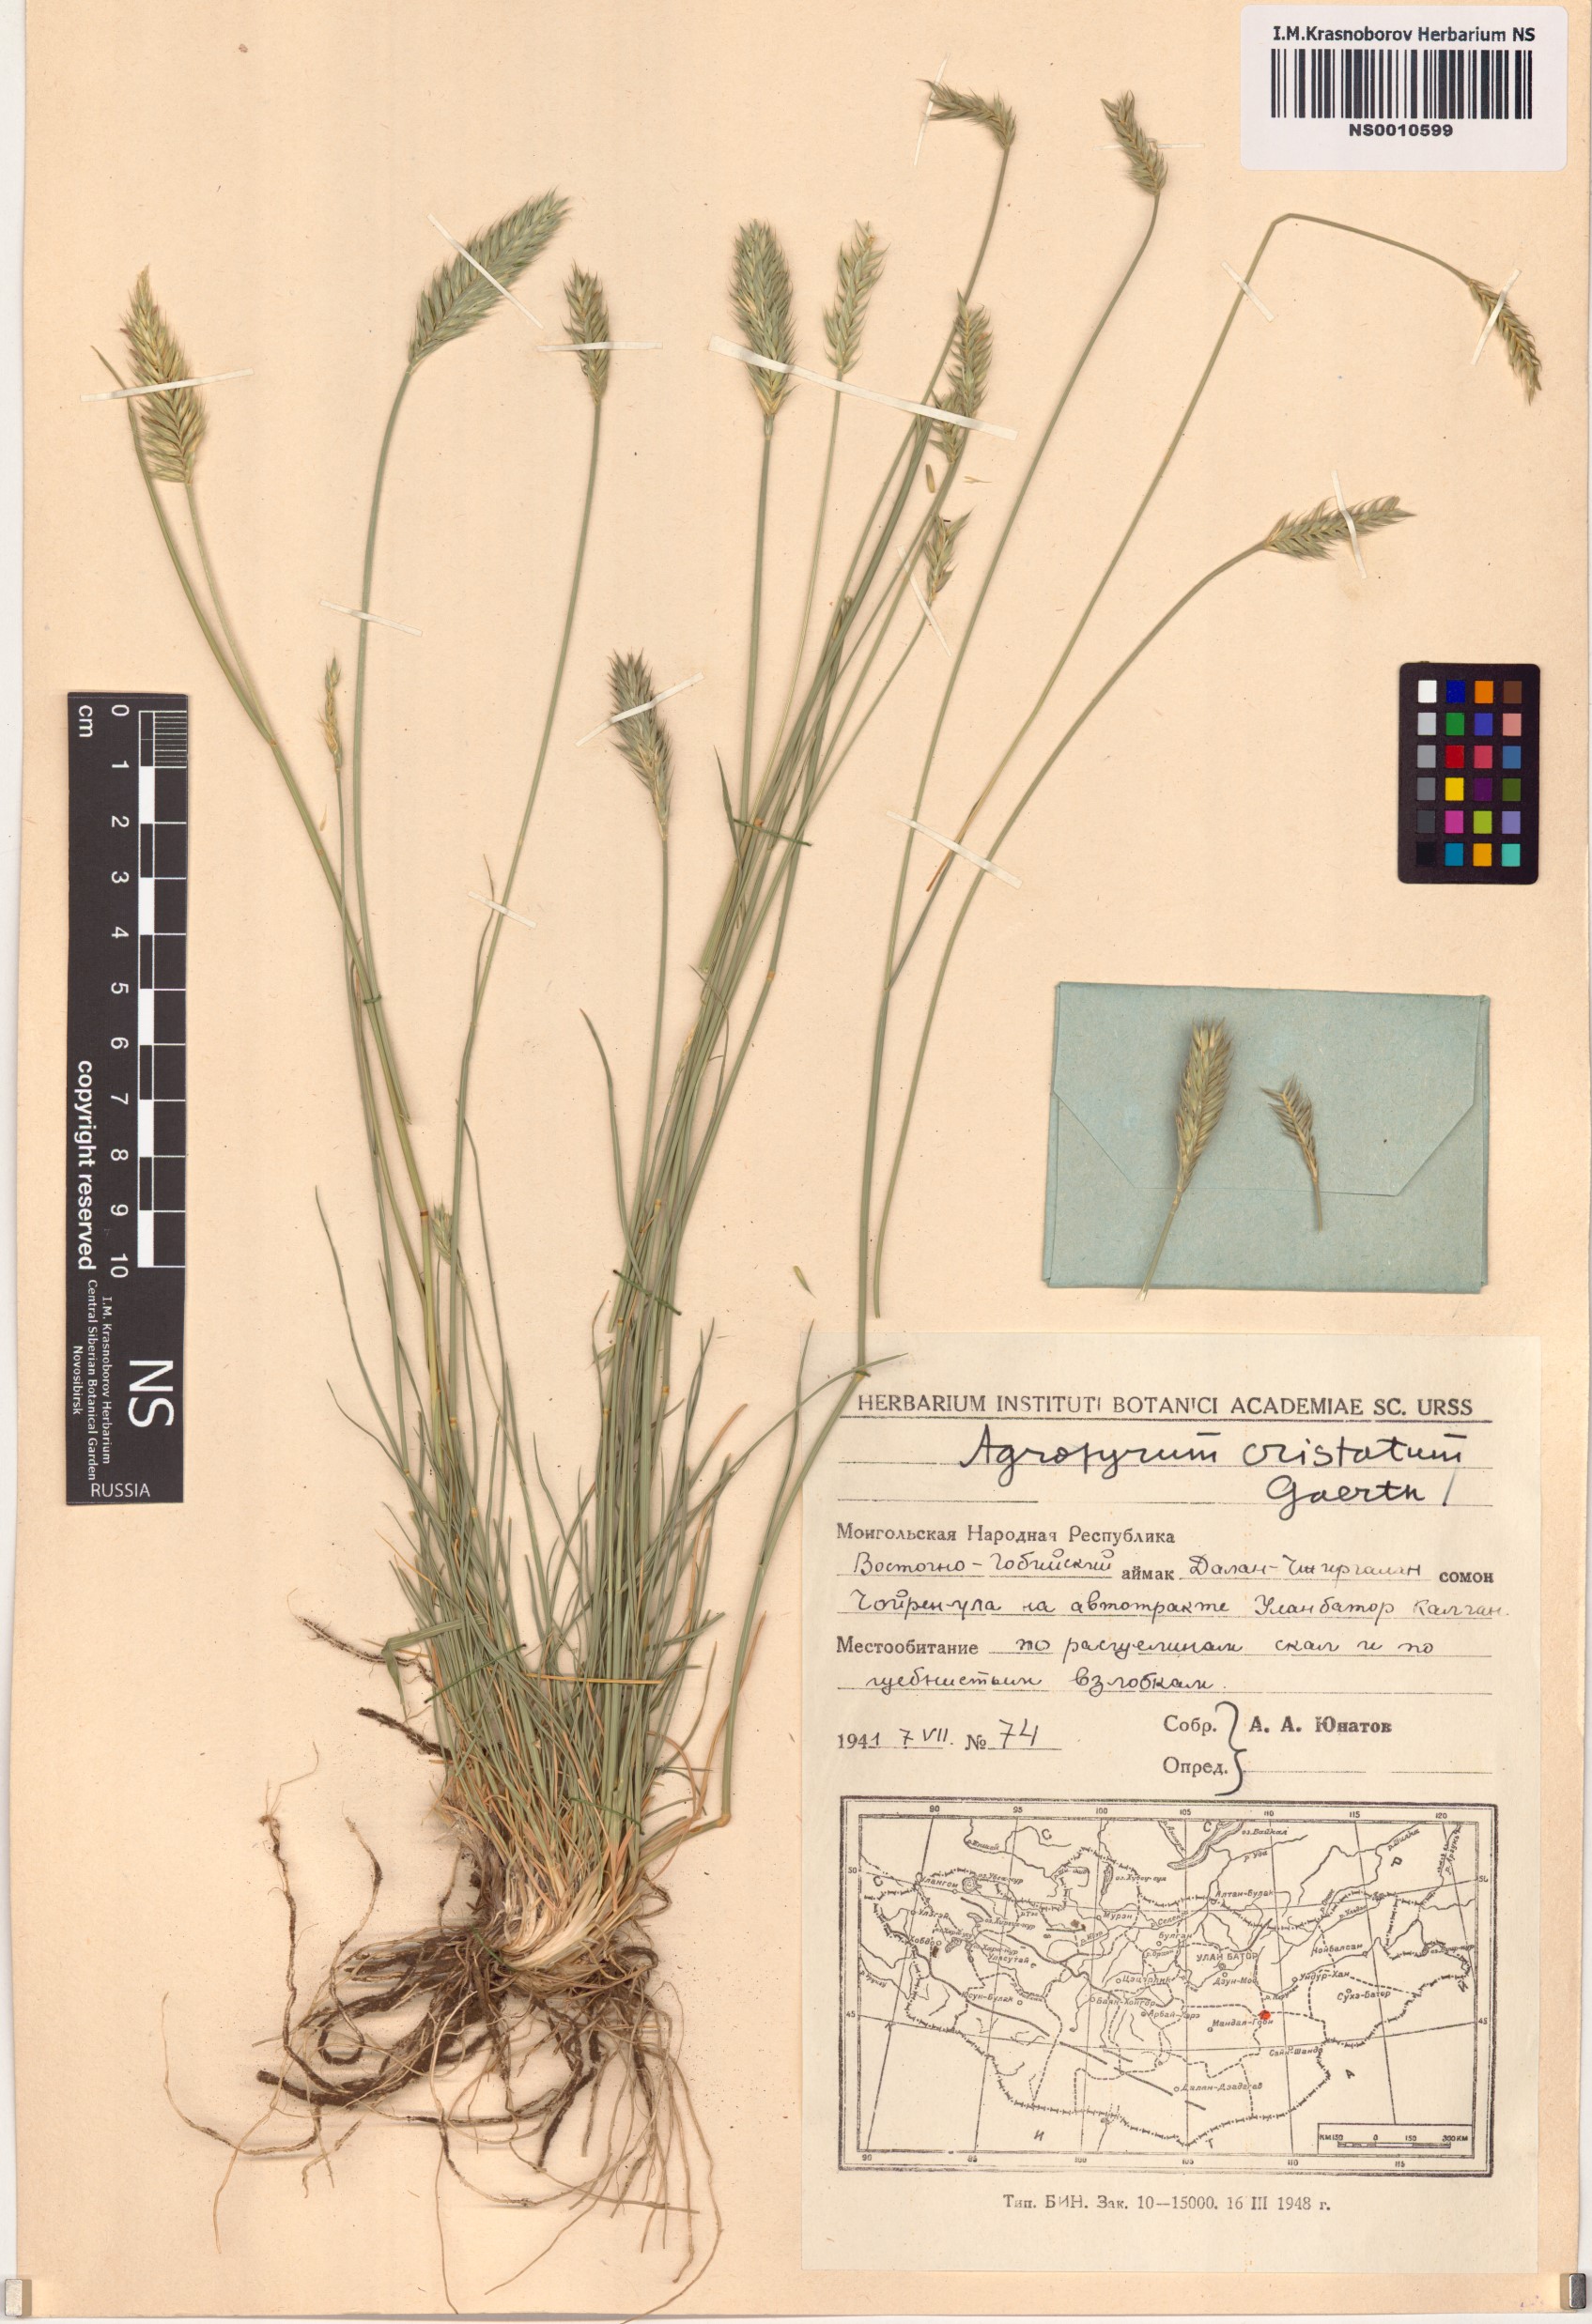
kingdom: Plantae
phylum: Tracheophyta
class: Liliopsida
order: Poales
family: Poaceae
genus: Agropyron
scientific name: Agropyron cristatum
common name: Crested wheatgrass
